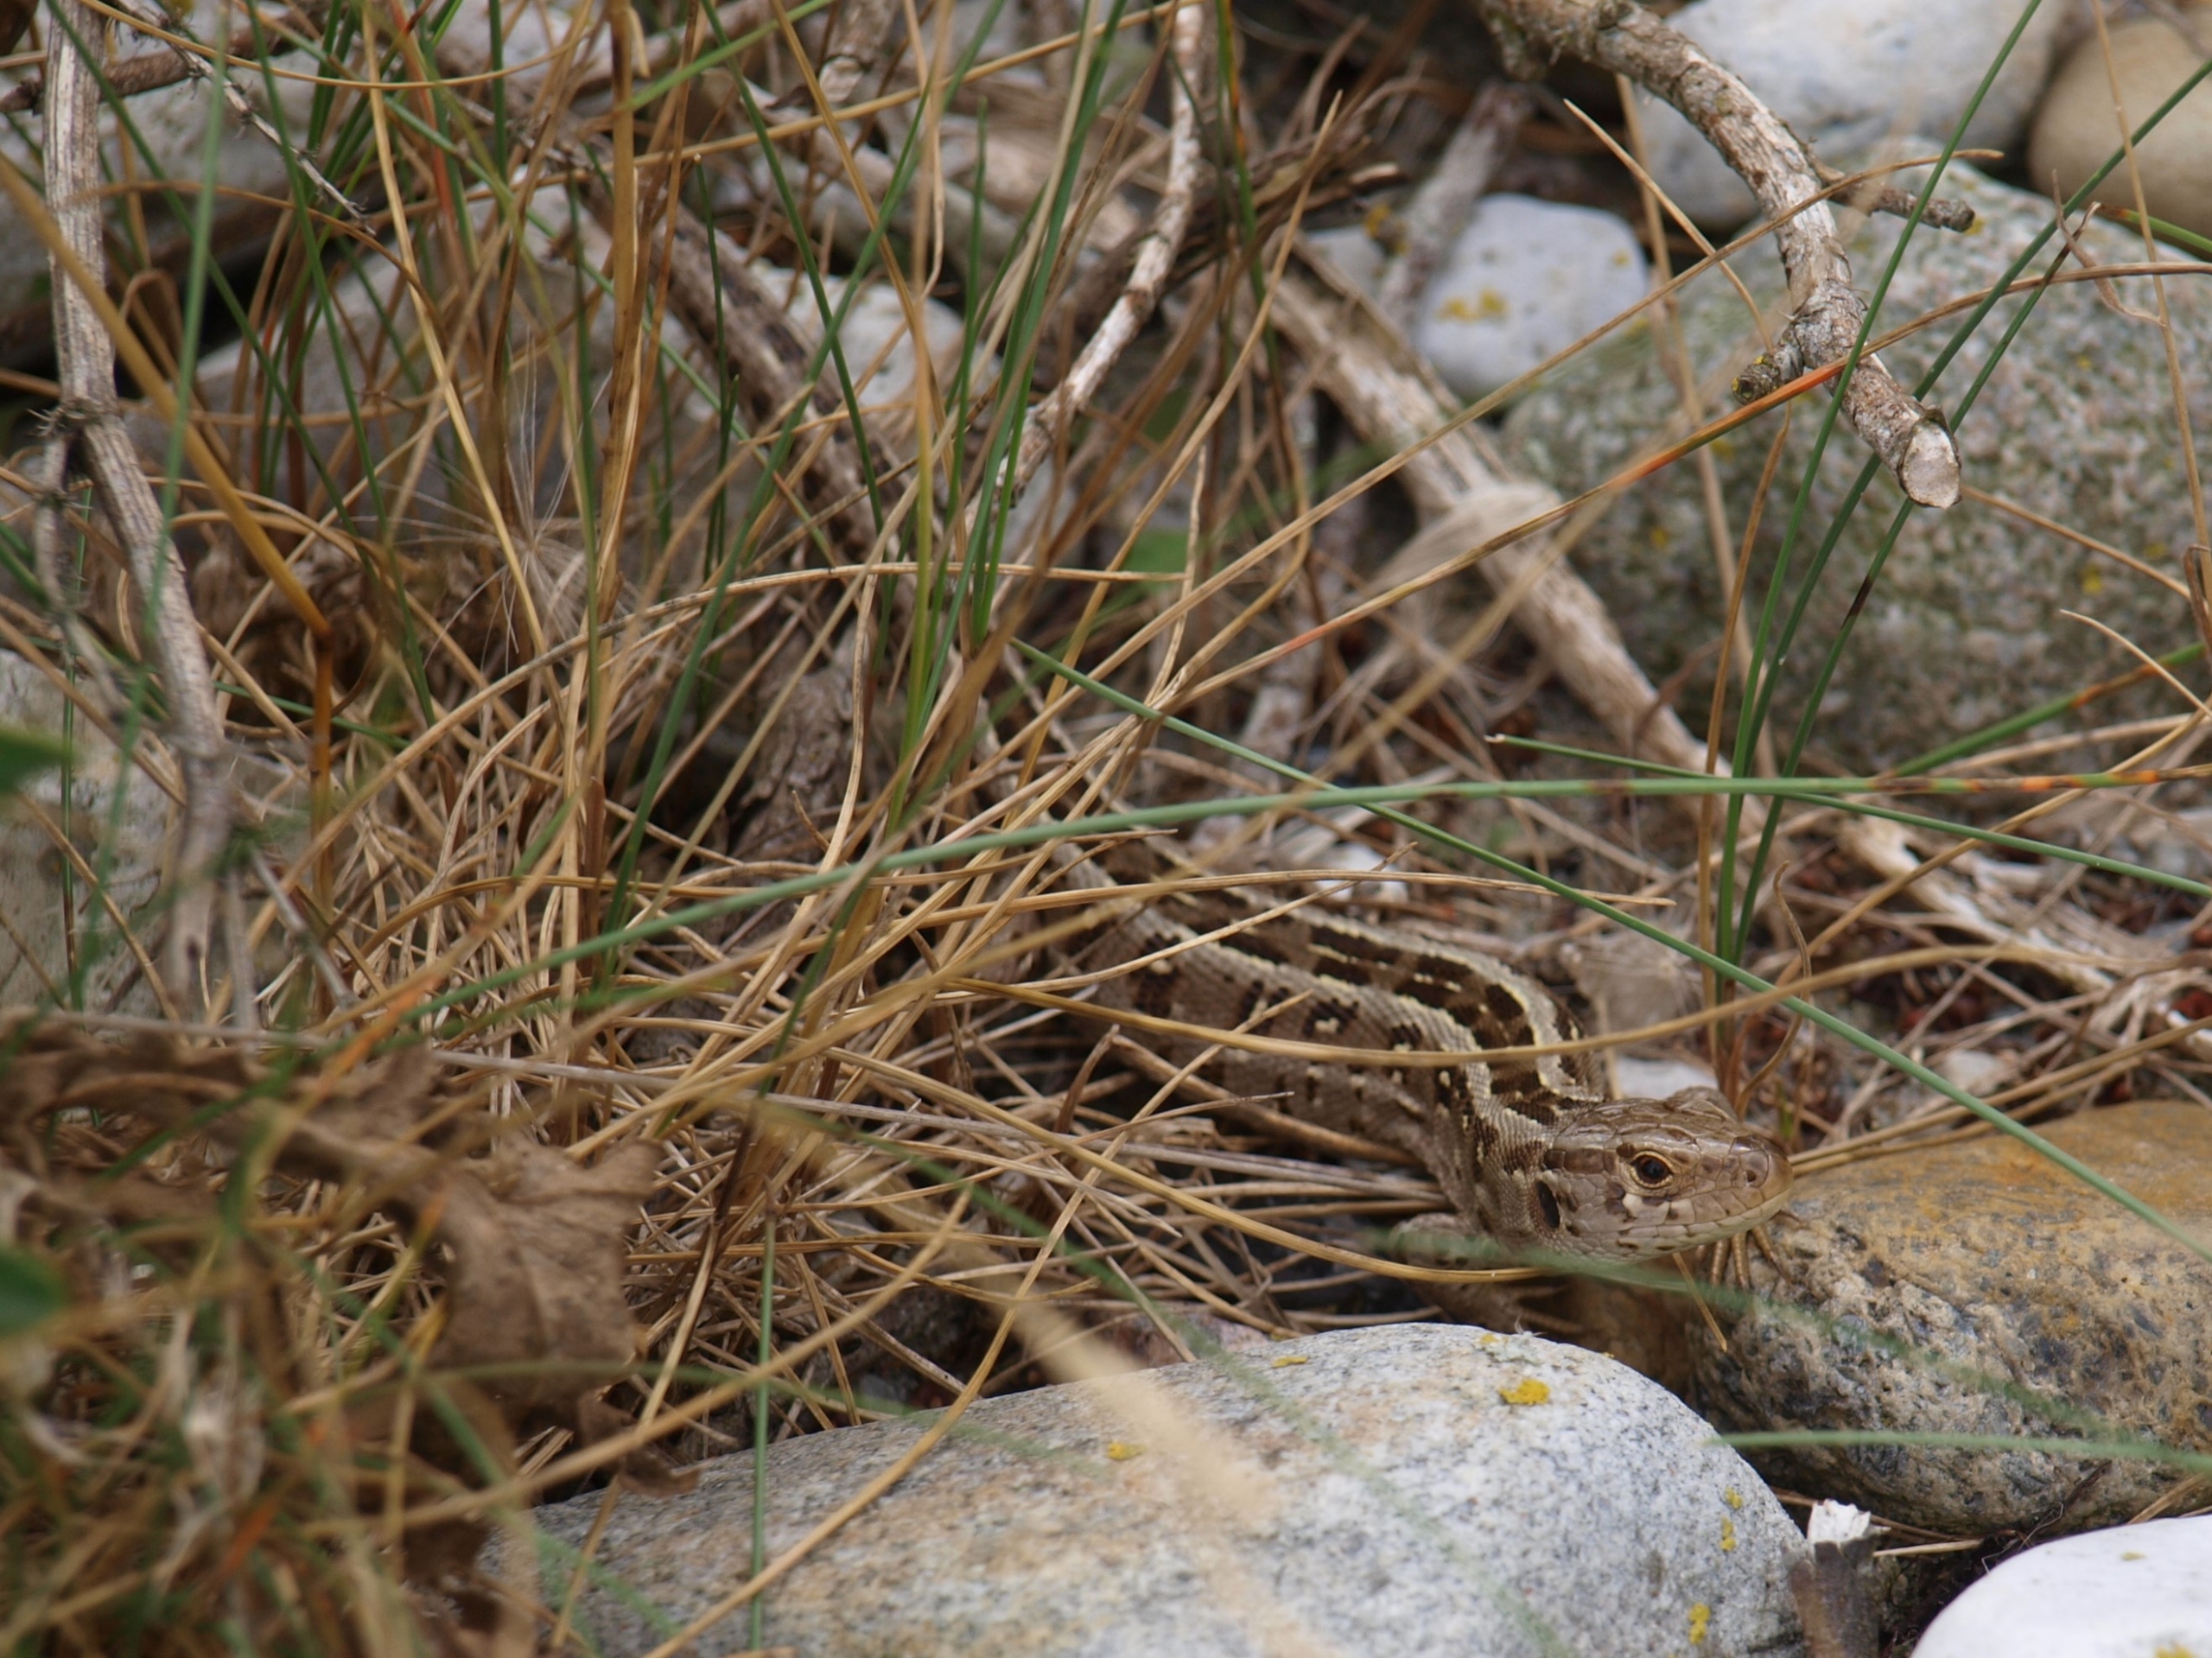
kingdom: Animalia
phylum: Chordata
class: Squamata
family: Lacertidae
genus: Lacerta
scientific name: Lacerta agilis
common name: Markfirben
